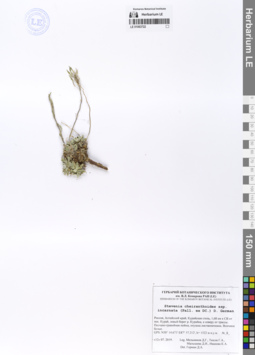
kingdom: Plantae
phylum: Tracheophyta
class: Magnoliopsida
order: Brassicales
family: Brassicaceae
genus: Stevenia
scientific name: Stevenia incarnata
